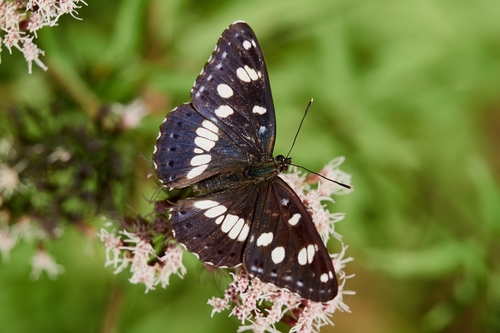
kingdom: Animalia
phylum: Arthropoda
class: Insecta
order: Lepidoptera
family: Nymphalidae
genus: Limenitis
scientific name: Limenitis reducta
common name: Southern white admiral
